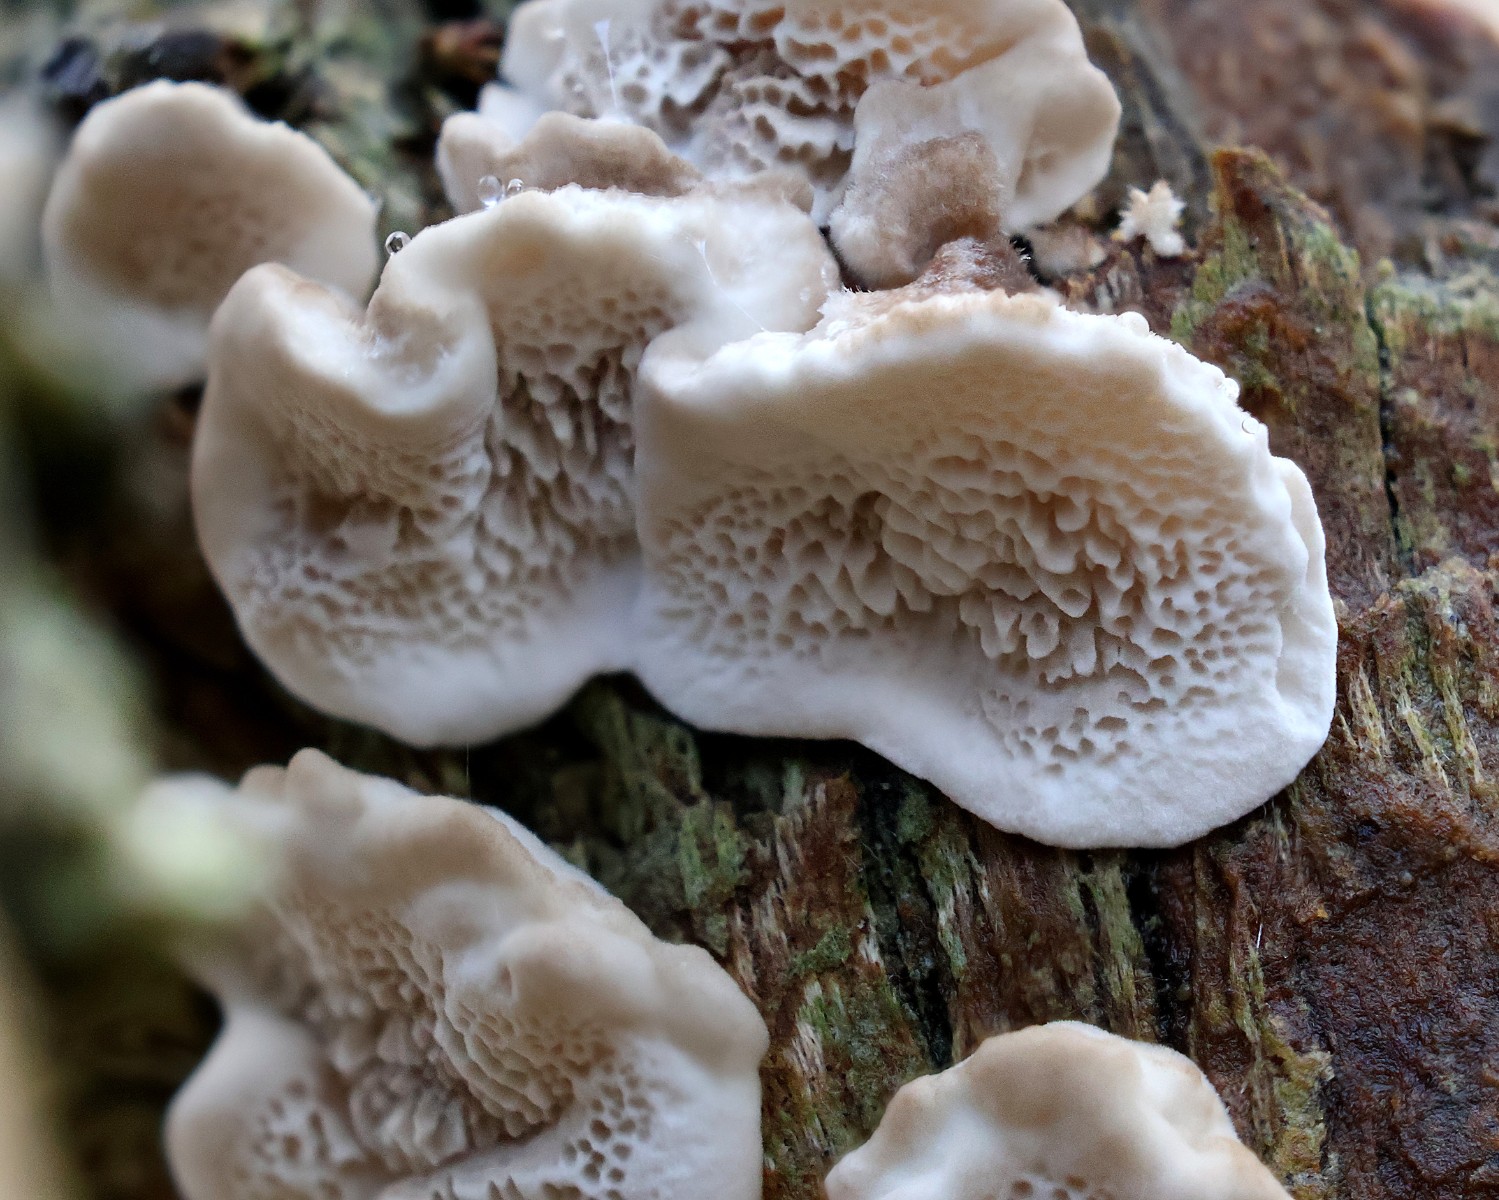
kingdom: Fungi
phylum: Basidiomycota
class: Agaricomycetes
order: Polyporales
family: Polyporaceae
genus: Trametes
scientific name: Trametes versicolor
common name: broget læderporesvamp
